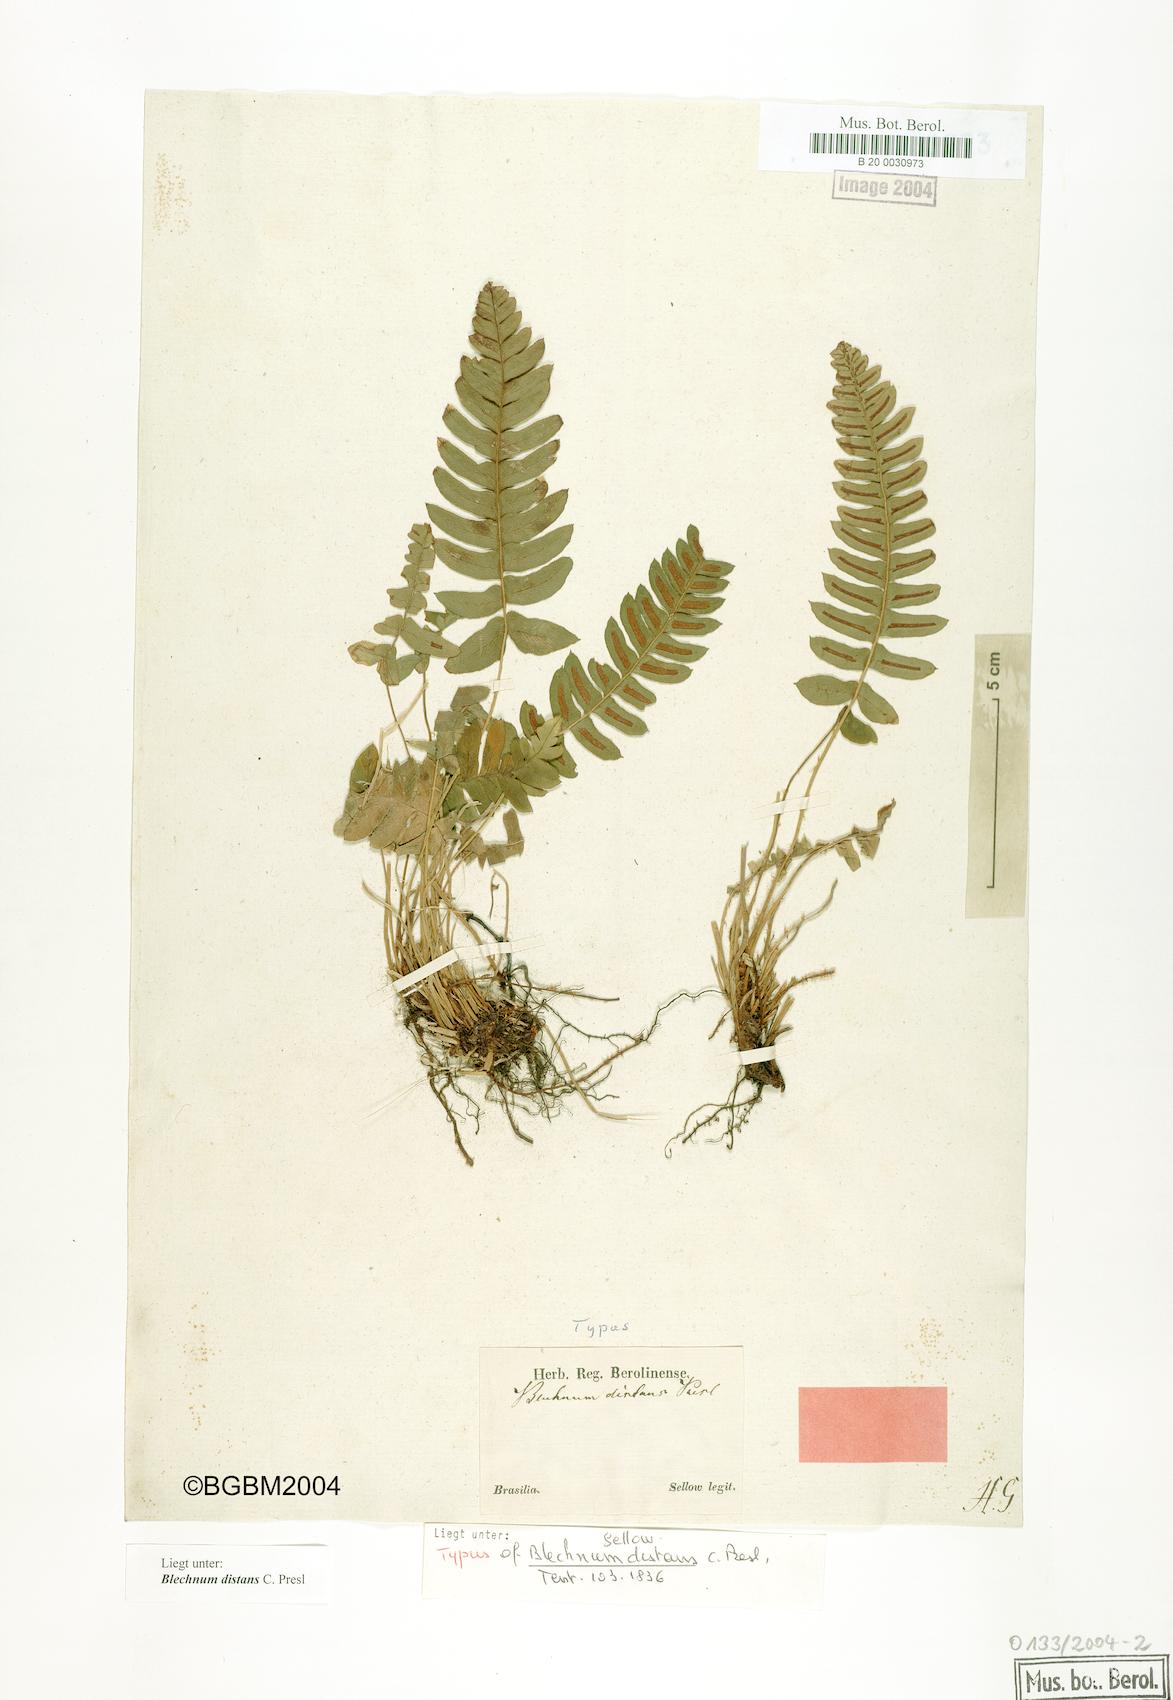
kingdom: Plantae
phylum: Tracheophyta
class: Polypodiopsida
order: Polypodiales
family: Blechnaceae
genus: Blechnum
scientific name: Blechnum laevigatum
